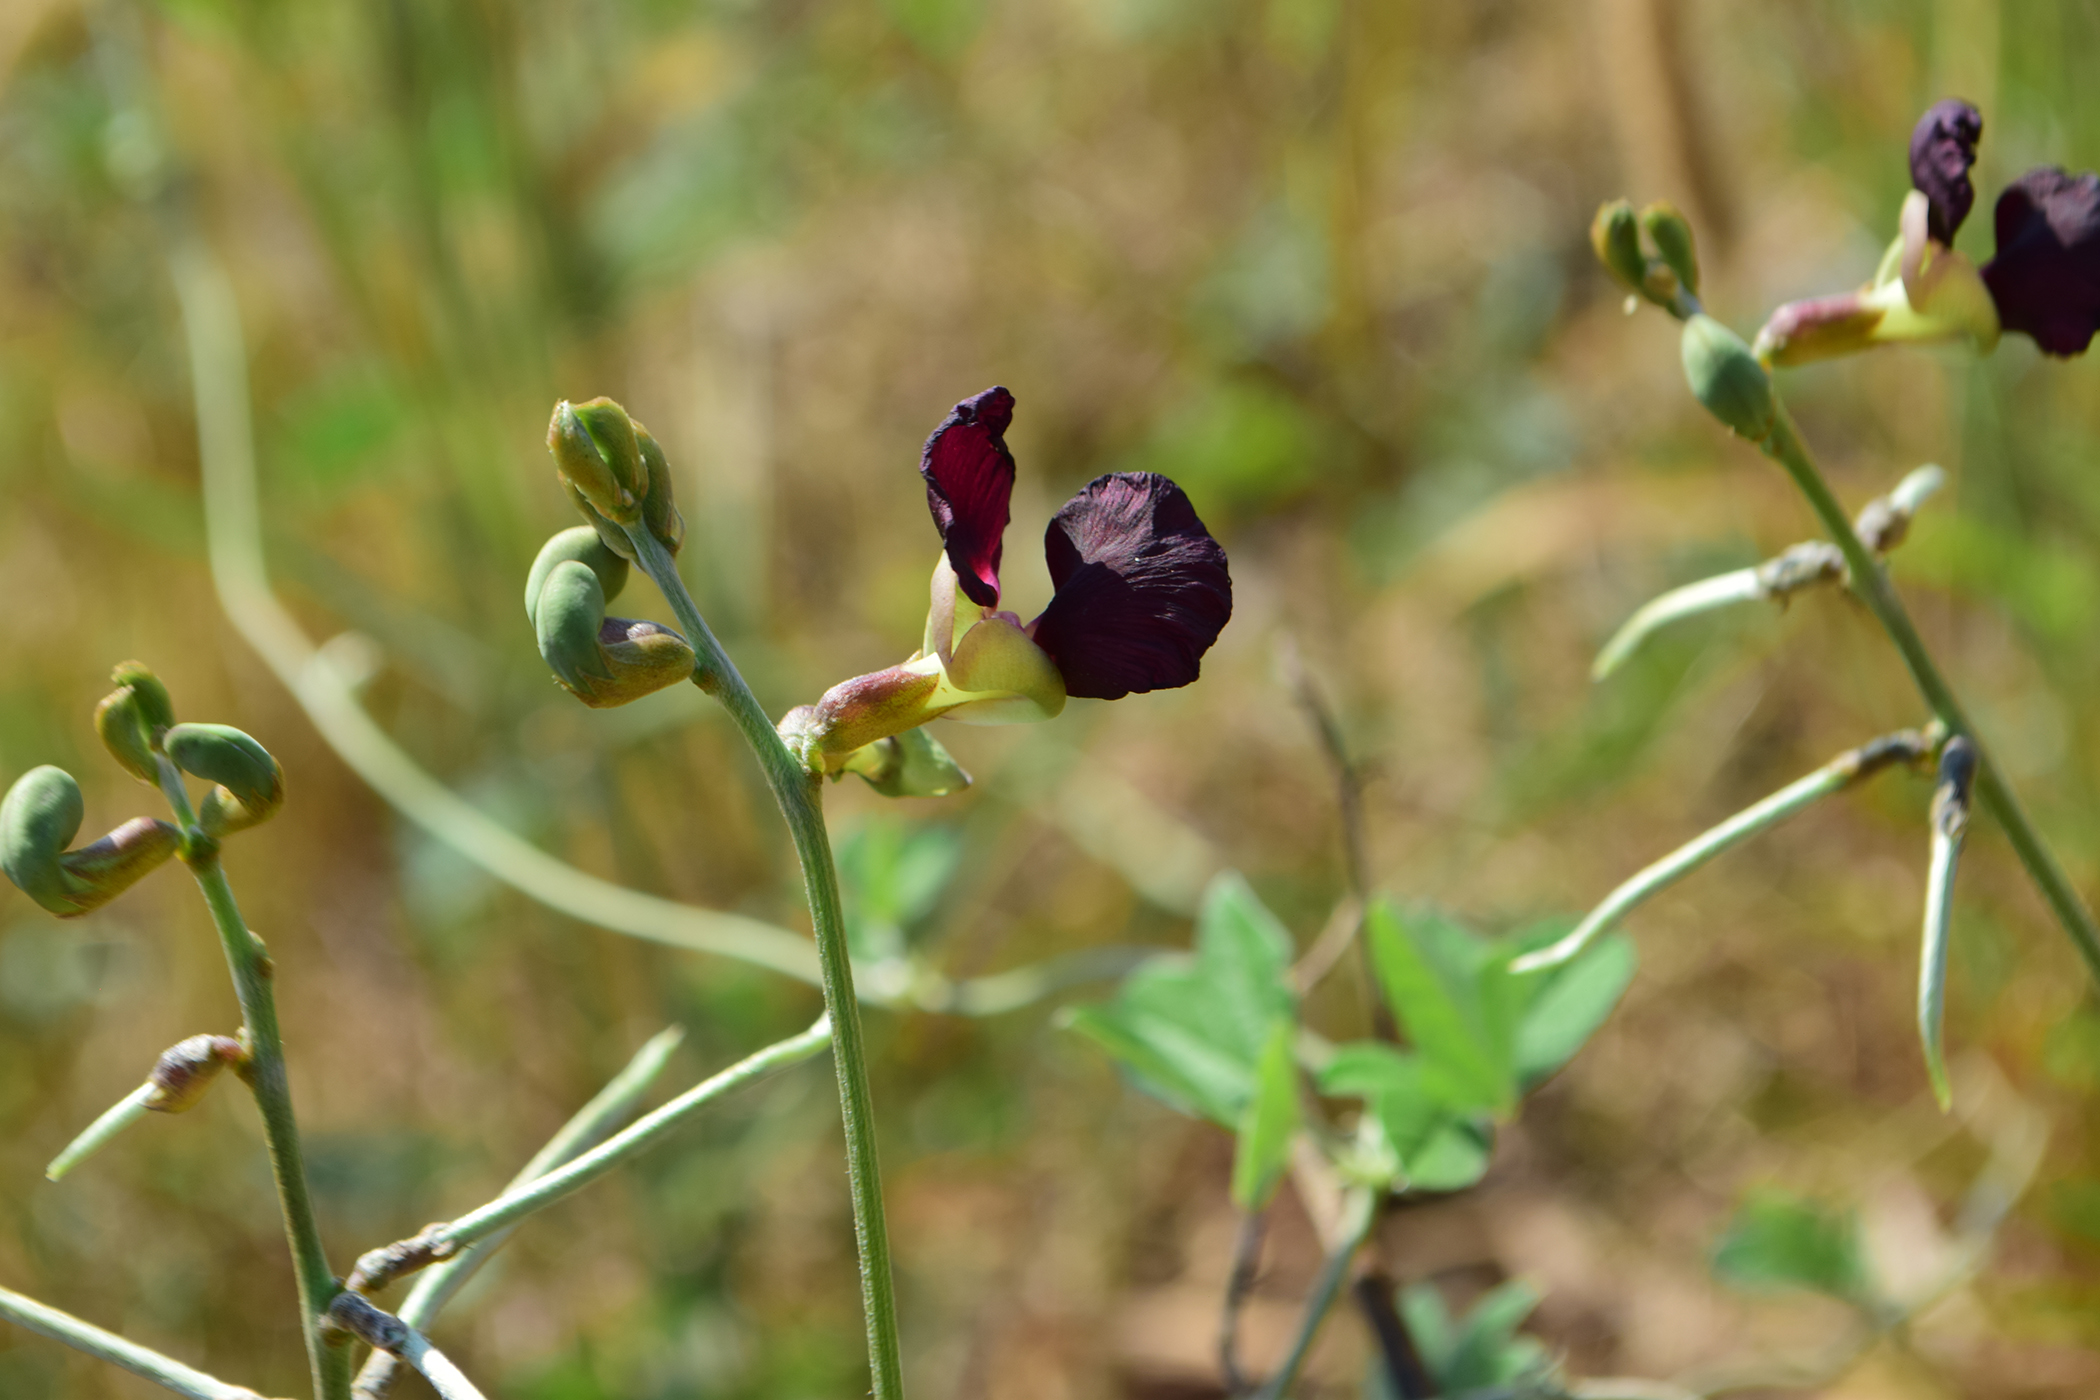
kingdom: Plantae
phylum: Tracheophyta
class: Magnoliopsida
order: Fabales
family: Fabaceae
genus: Macroptilium
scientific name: Macroptilium atropurpureum
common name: Purple bushbean
